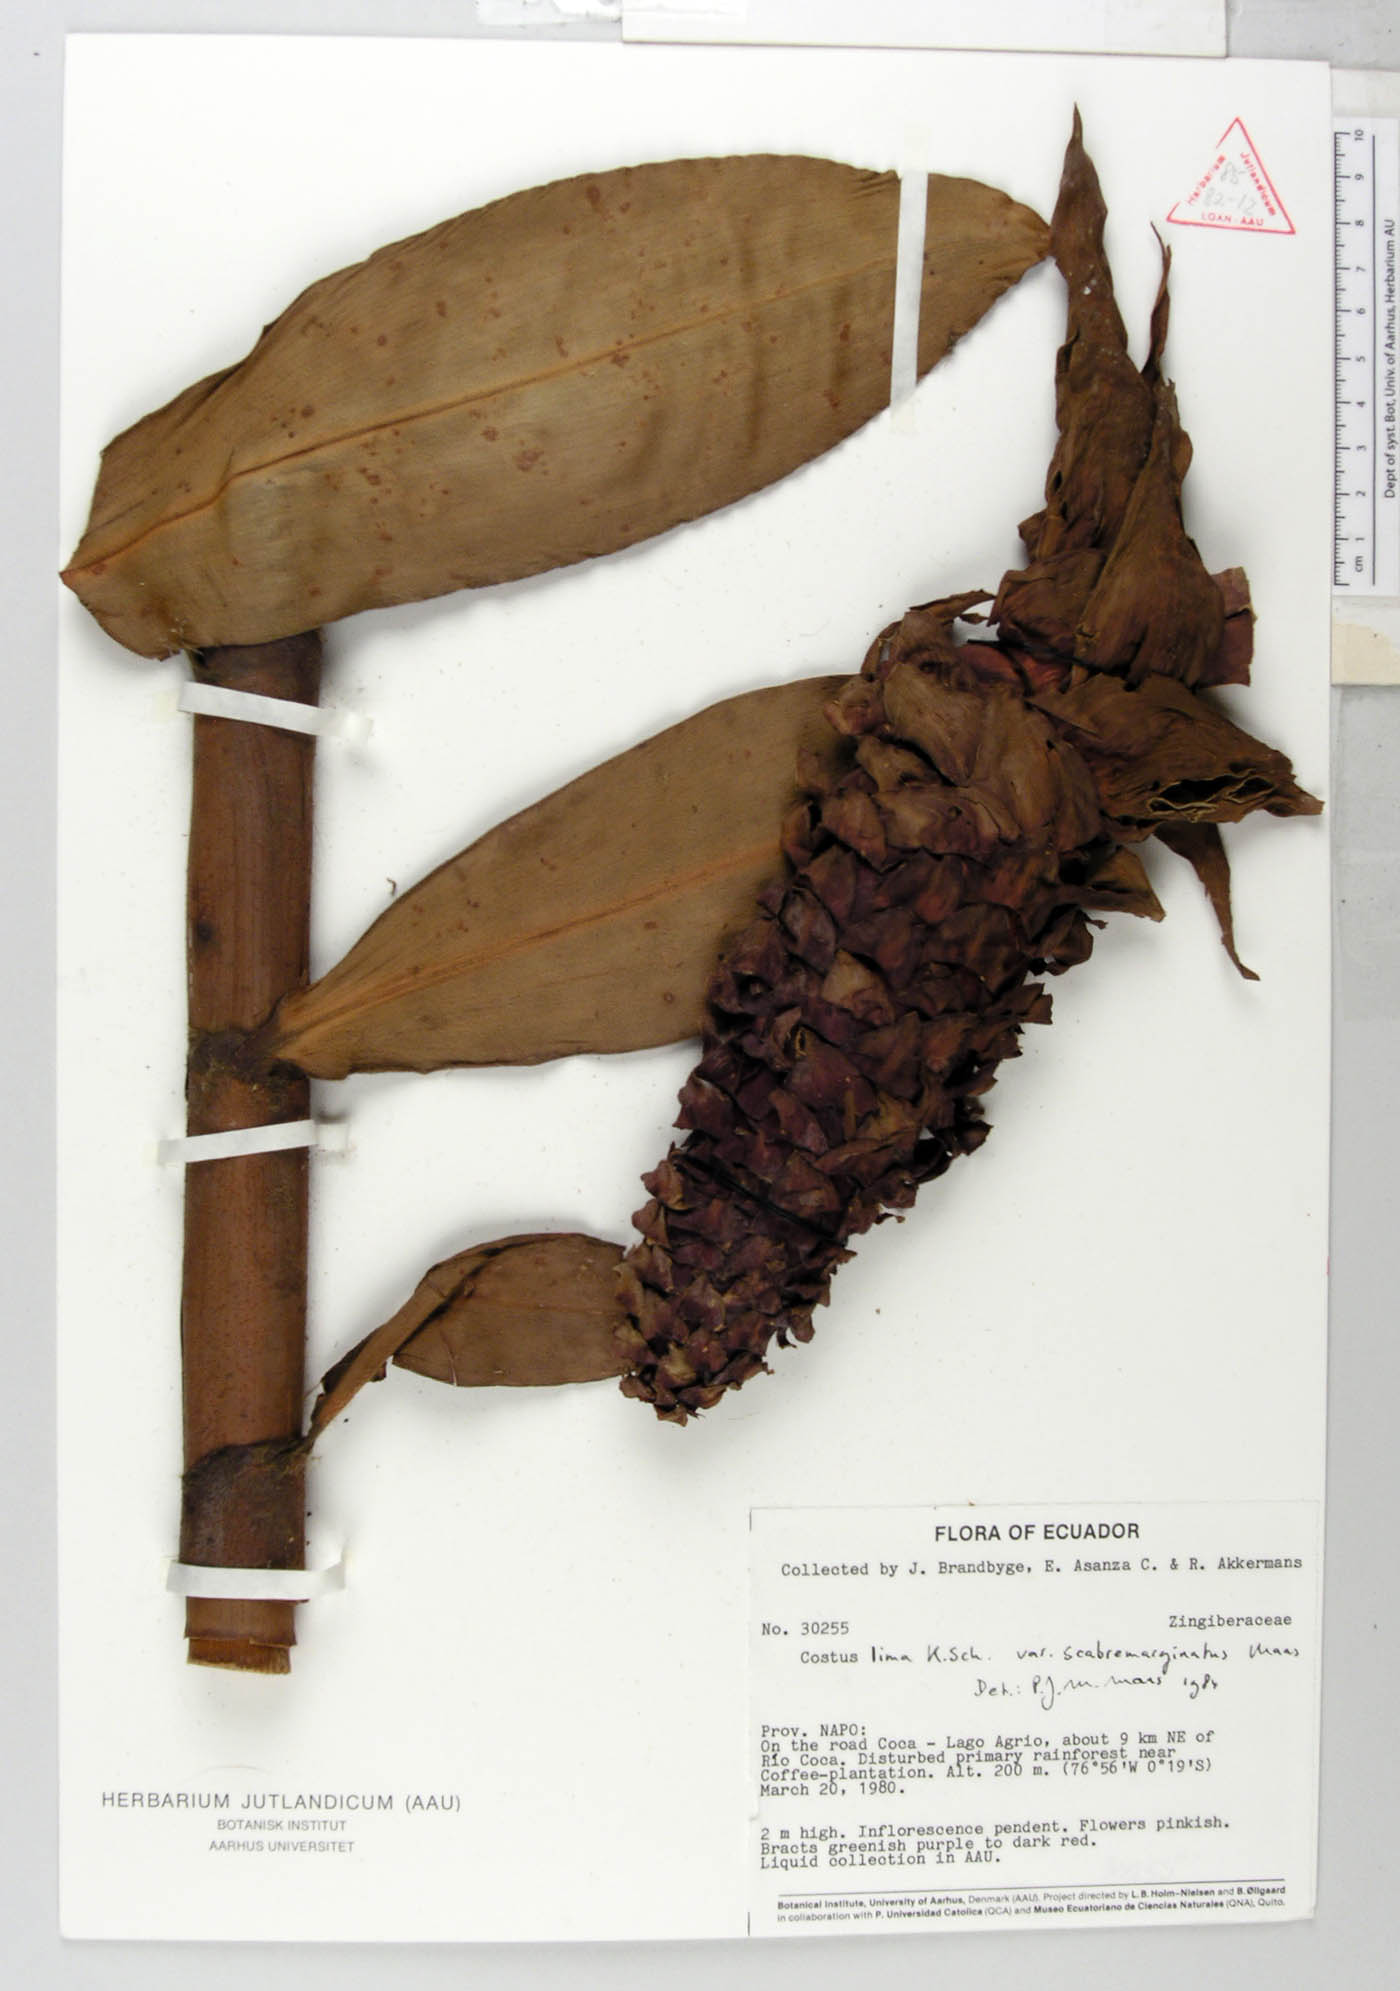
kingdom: Plantae
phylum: Tracheophyta
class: Liliopsida
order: Zingiberales
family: Costaceae
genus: Costus
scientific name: Costus asplundii
